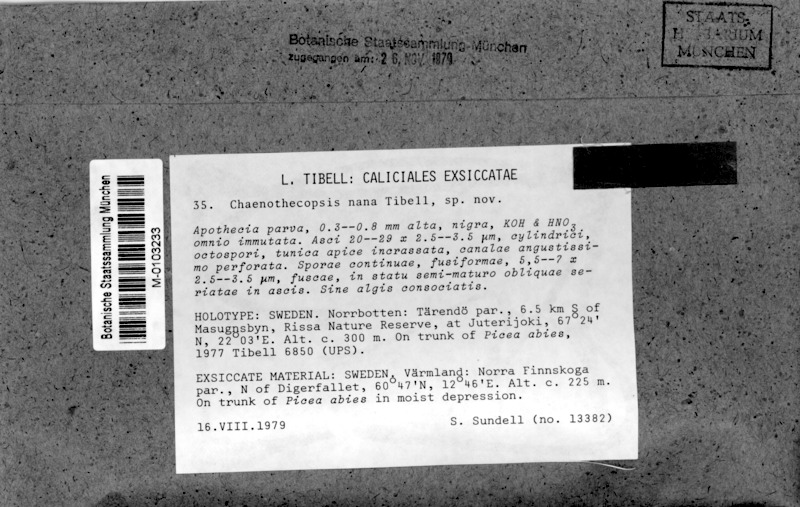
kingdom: Fungi
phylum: Ascomycota
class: Eurotiomycetes
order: Mycocaliciales
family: Mycocaliciaceae
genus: Chaenothecopsis
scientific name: Chaenothecopsis nana
